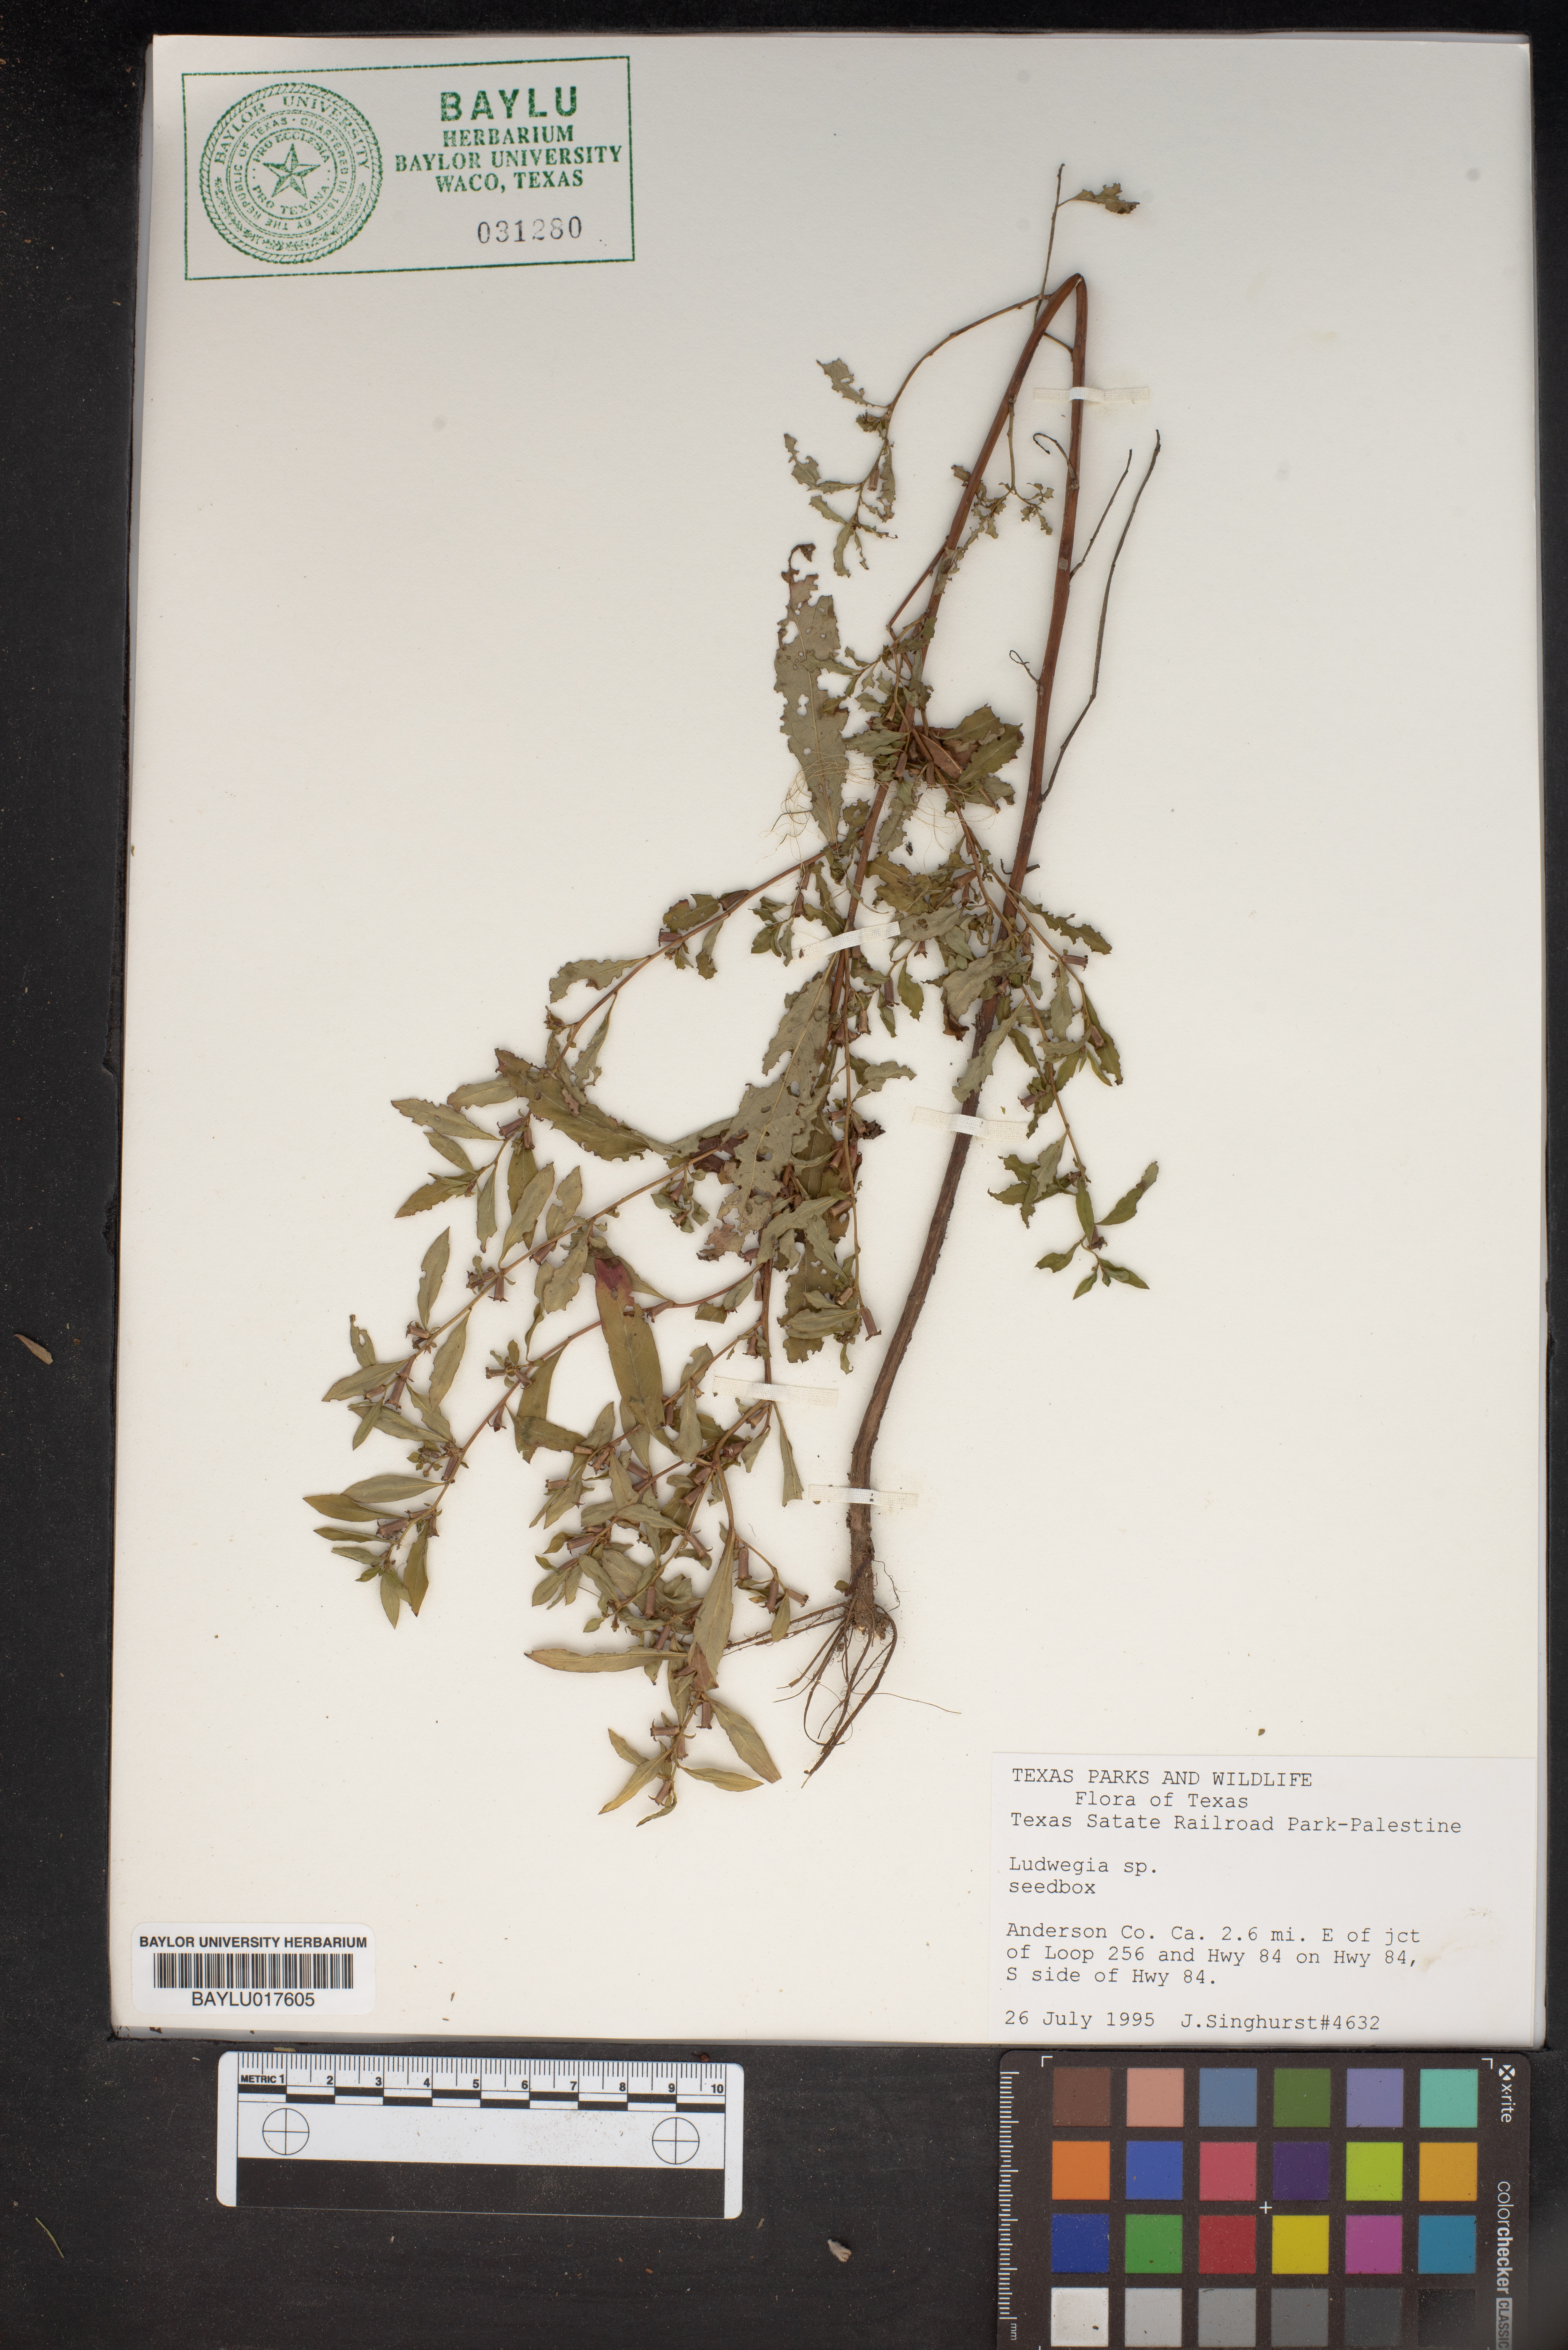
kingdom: Plantae
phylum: Tracheophyta
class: Magnoliopsida
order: Myrtales
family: Onagraceae
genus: Ludwigia
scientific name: Ludwigia
